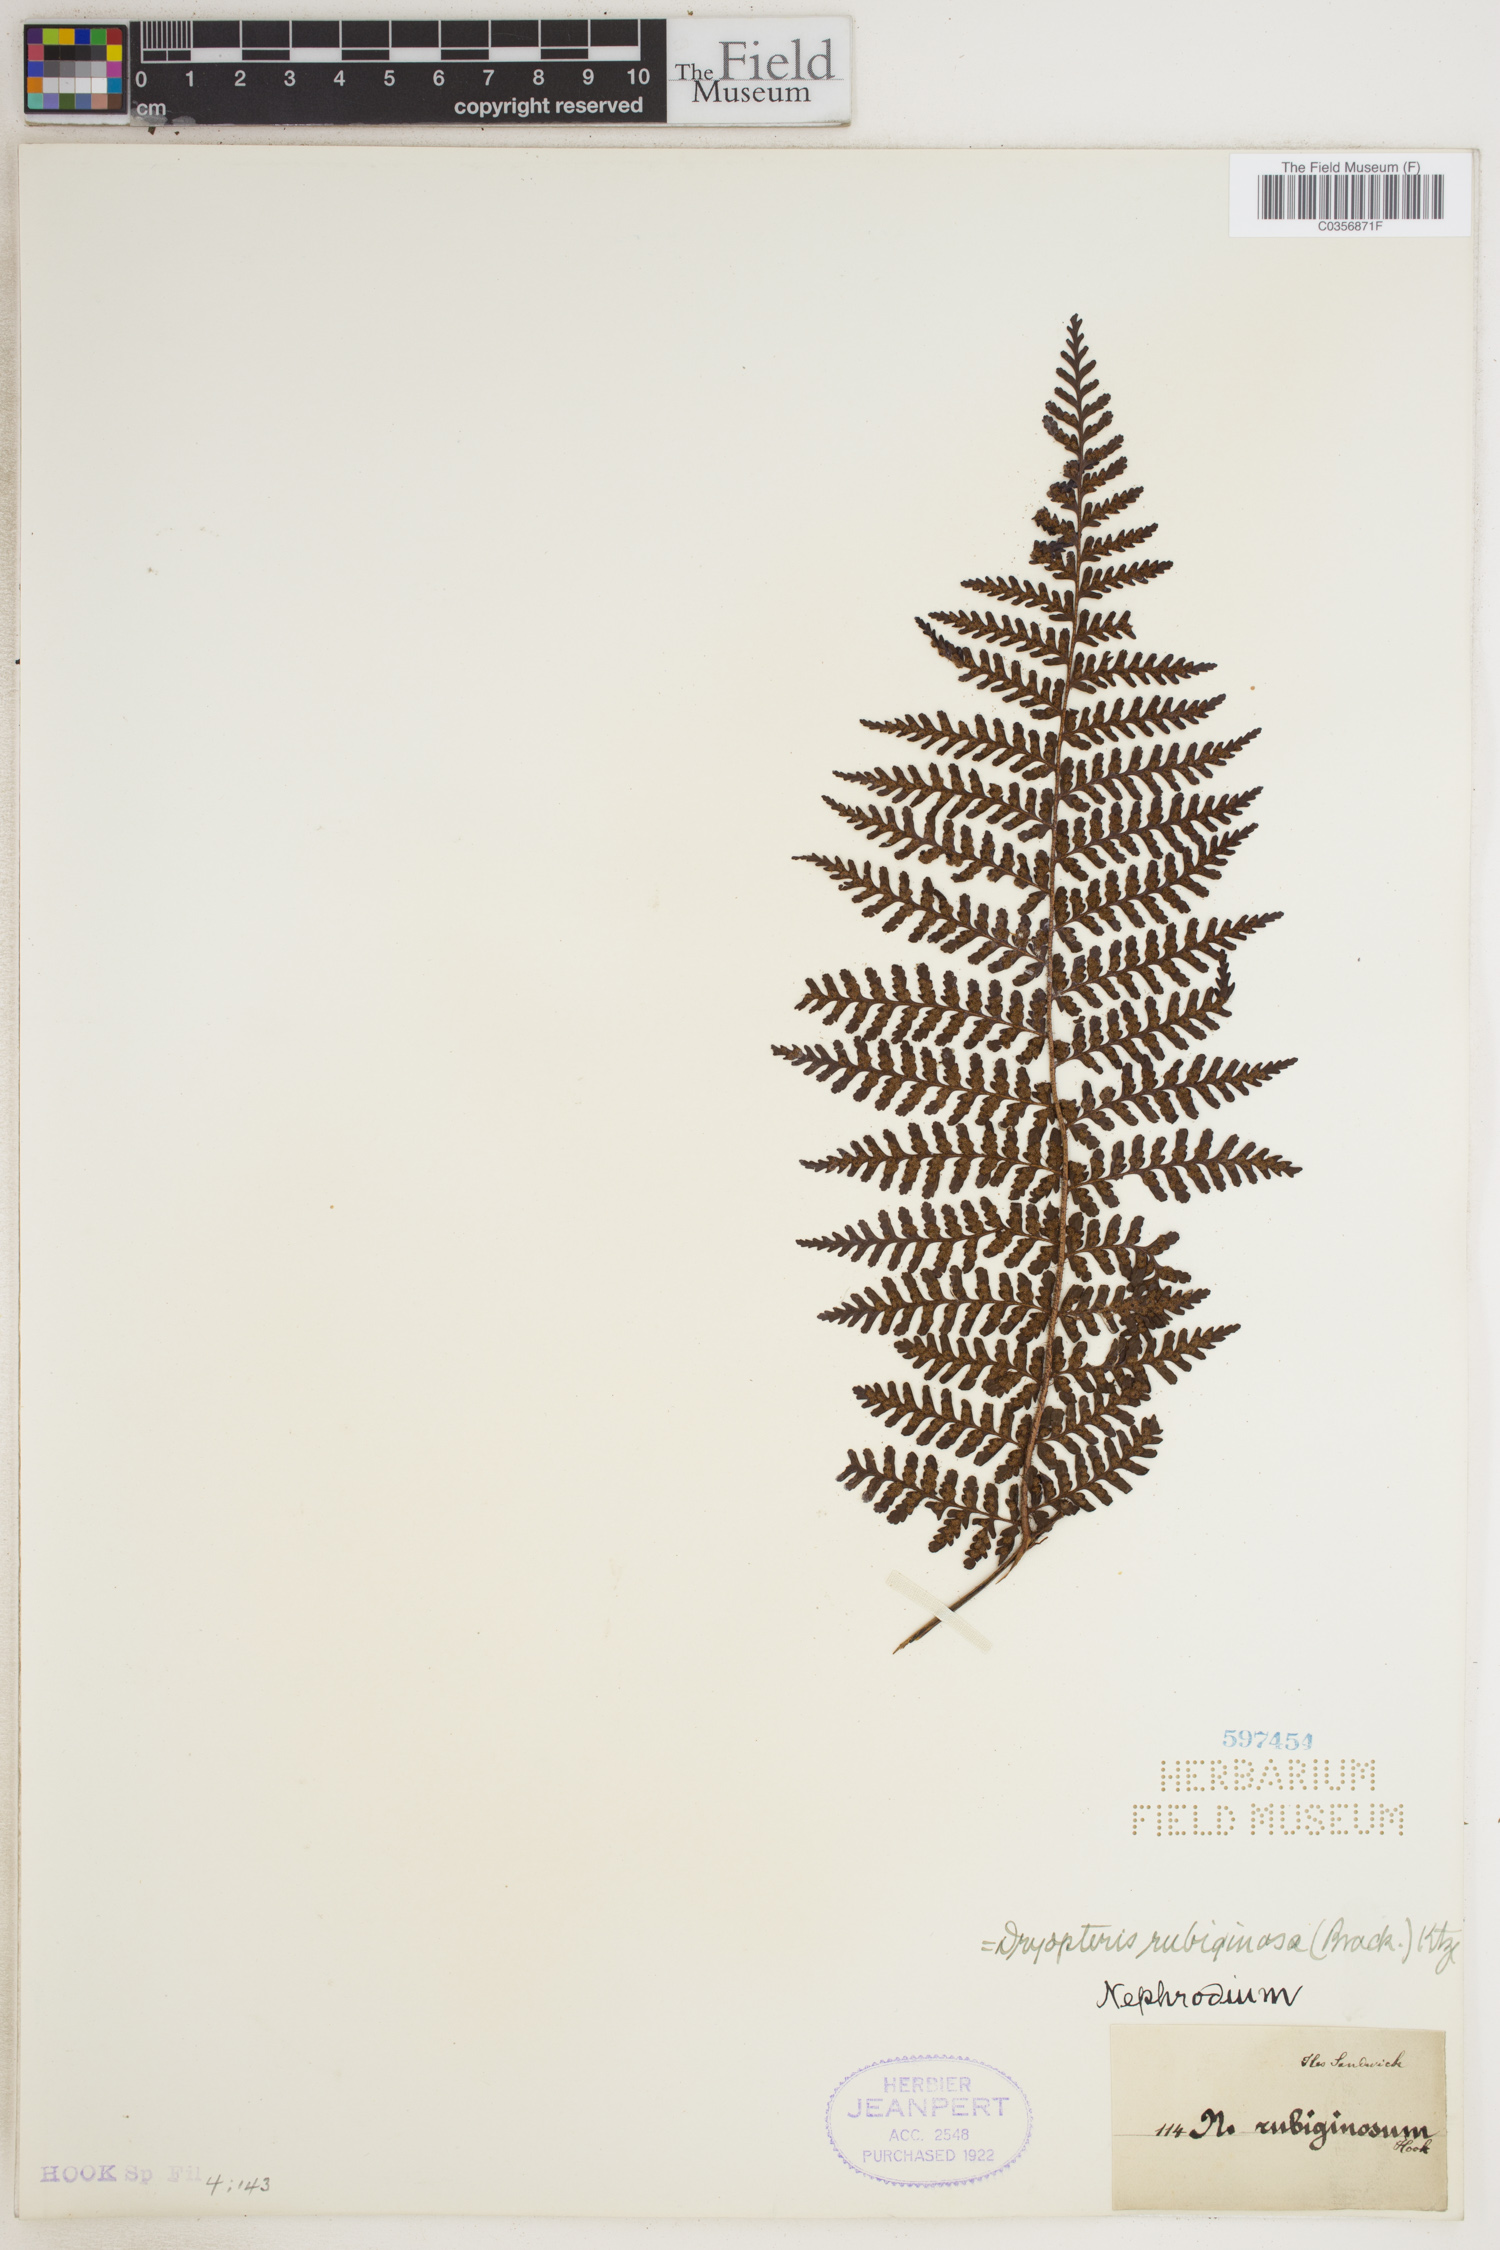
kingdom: Plantae
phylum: Tracheophyta
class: Polypodiopsida
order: Polypodiales
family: Dryopteridaceae
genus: Dryopteris
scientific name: Dryopteris rubiginosa
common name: Island lacefern
